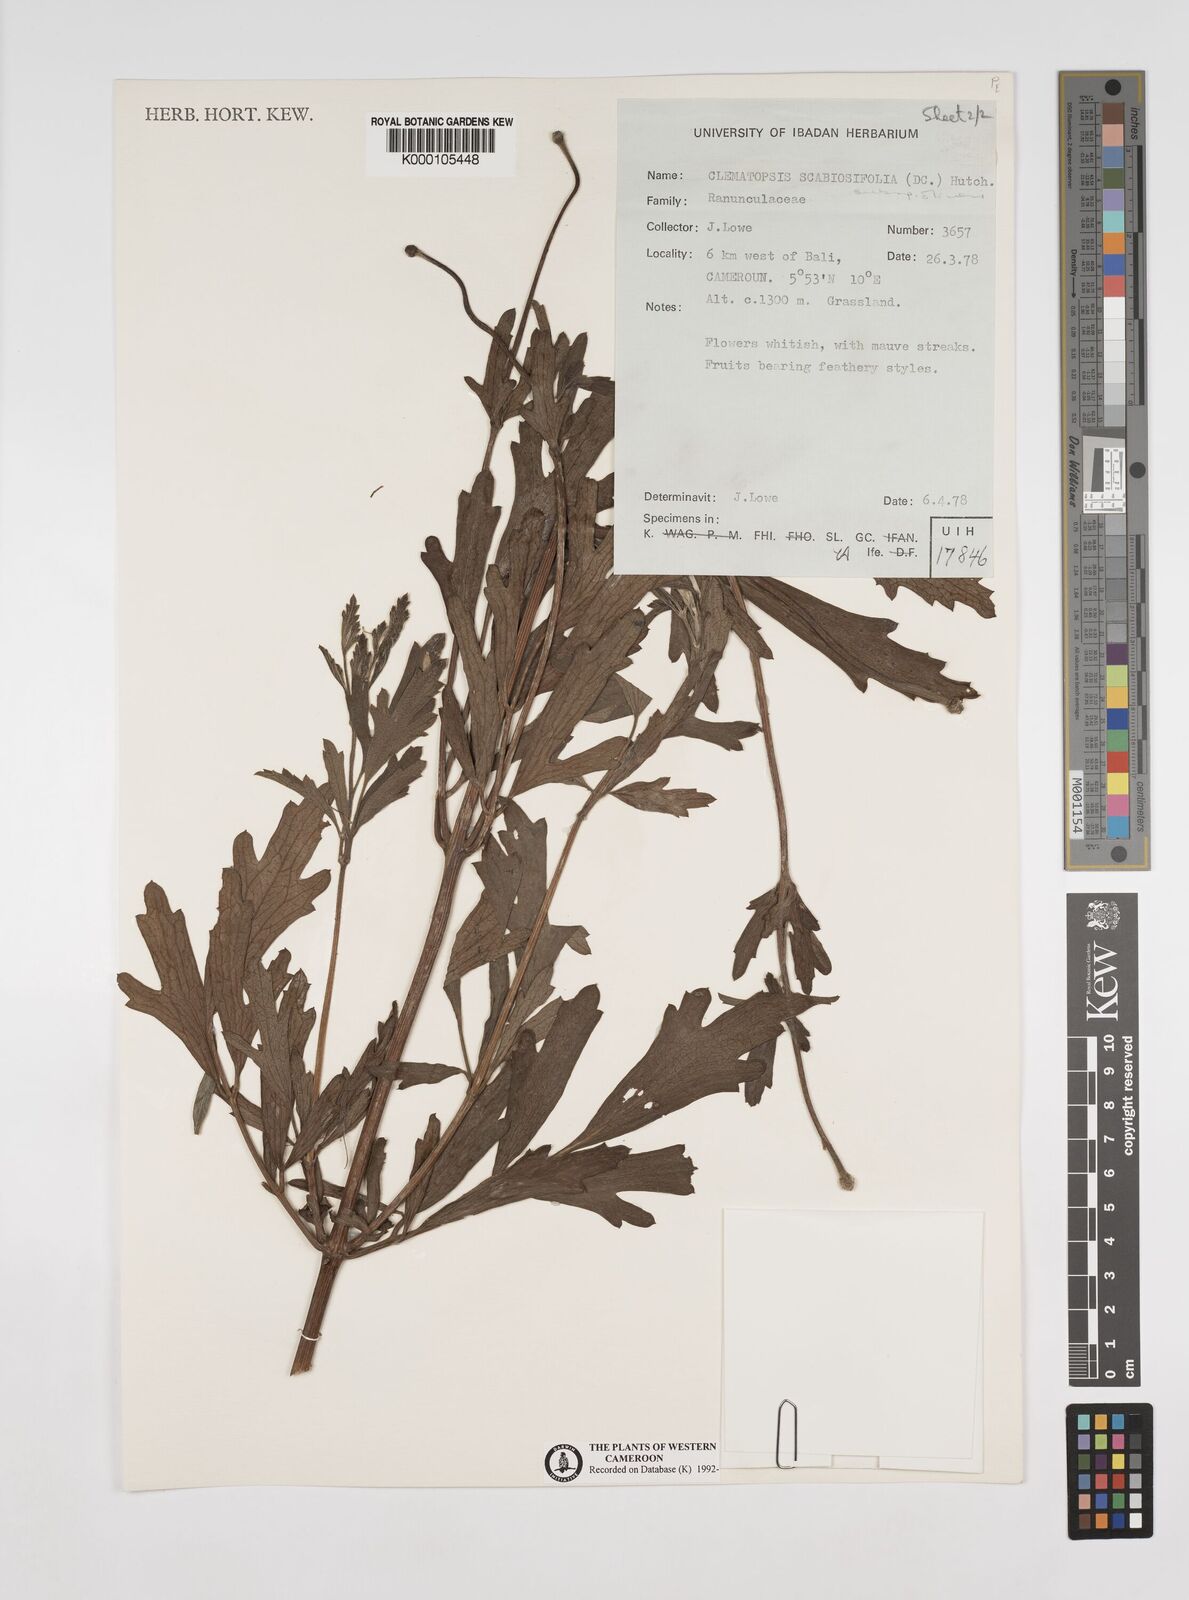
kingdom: Plantae
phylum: Tracheophyta
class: Magnoliopsida
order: Ranunculales
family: Ranunculaceae
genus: Clematis
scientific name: Clematis villosa
